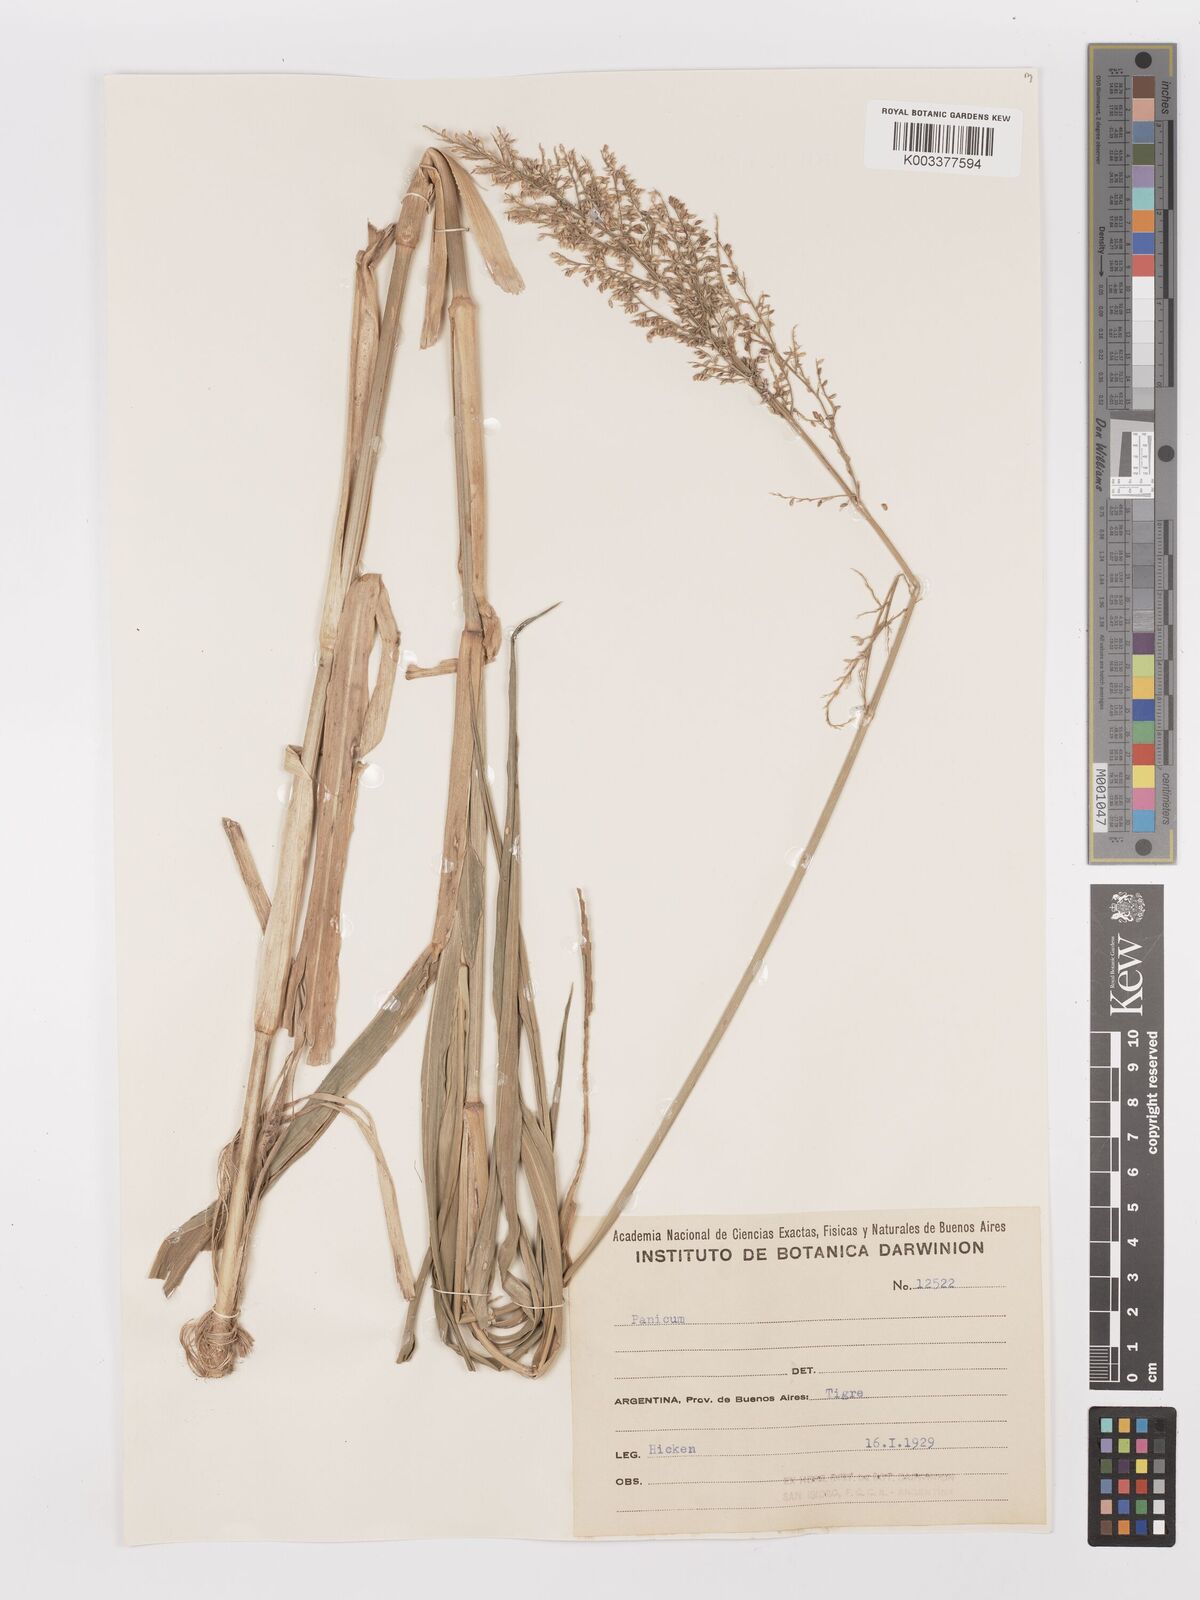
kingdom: Plantae
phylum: Tracheophyta
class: Liliopsida
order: Poales
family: Poaceae
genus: Hymenachne
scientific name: Hymenachne grumosa
